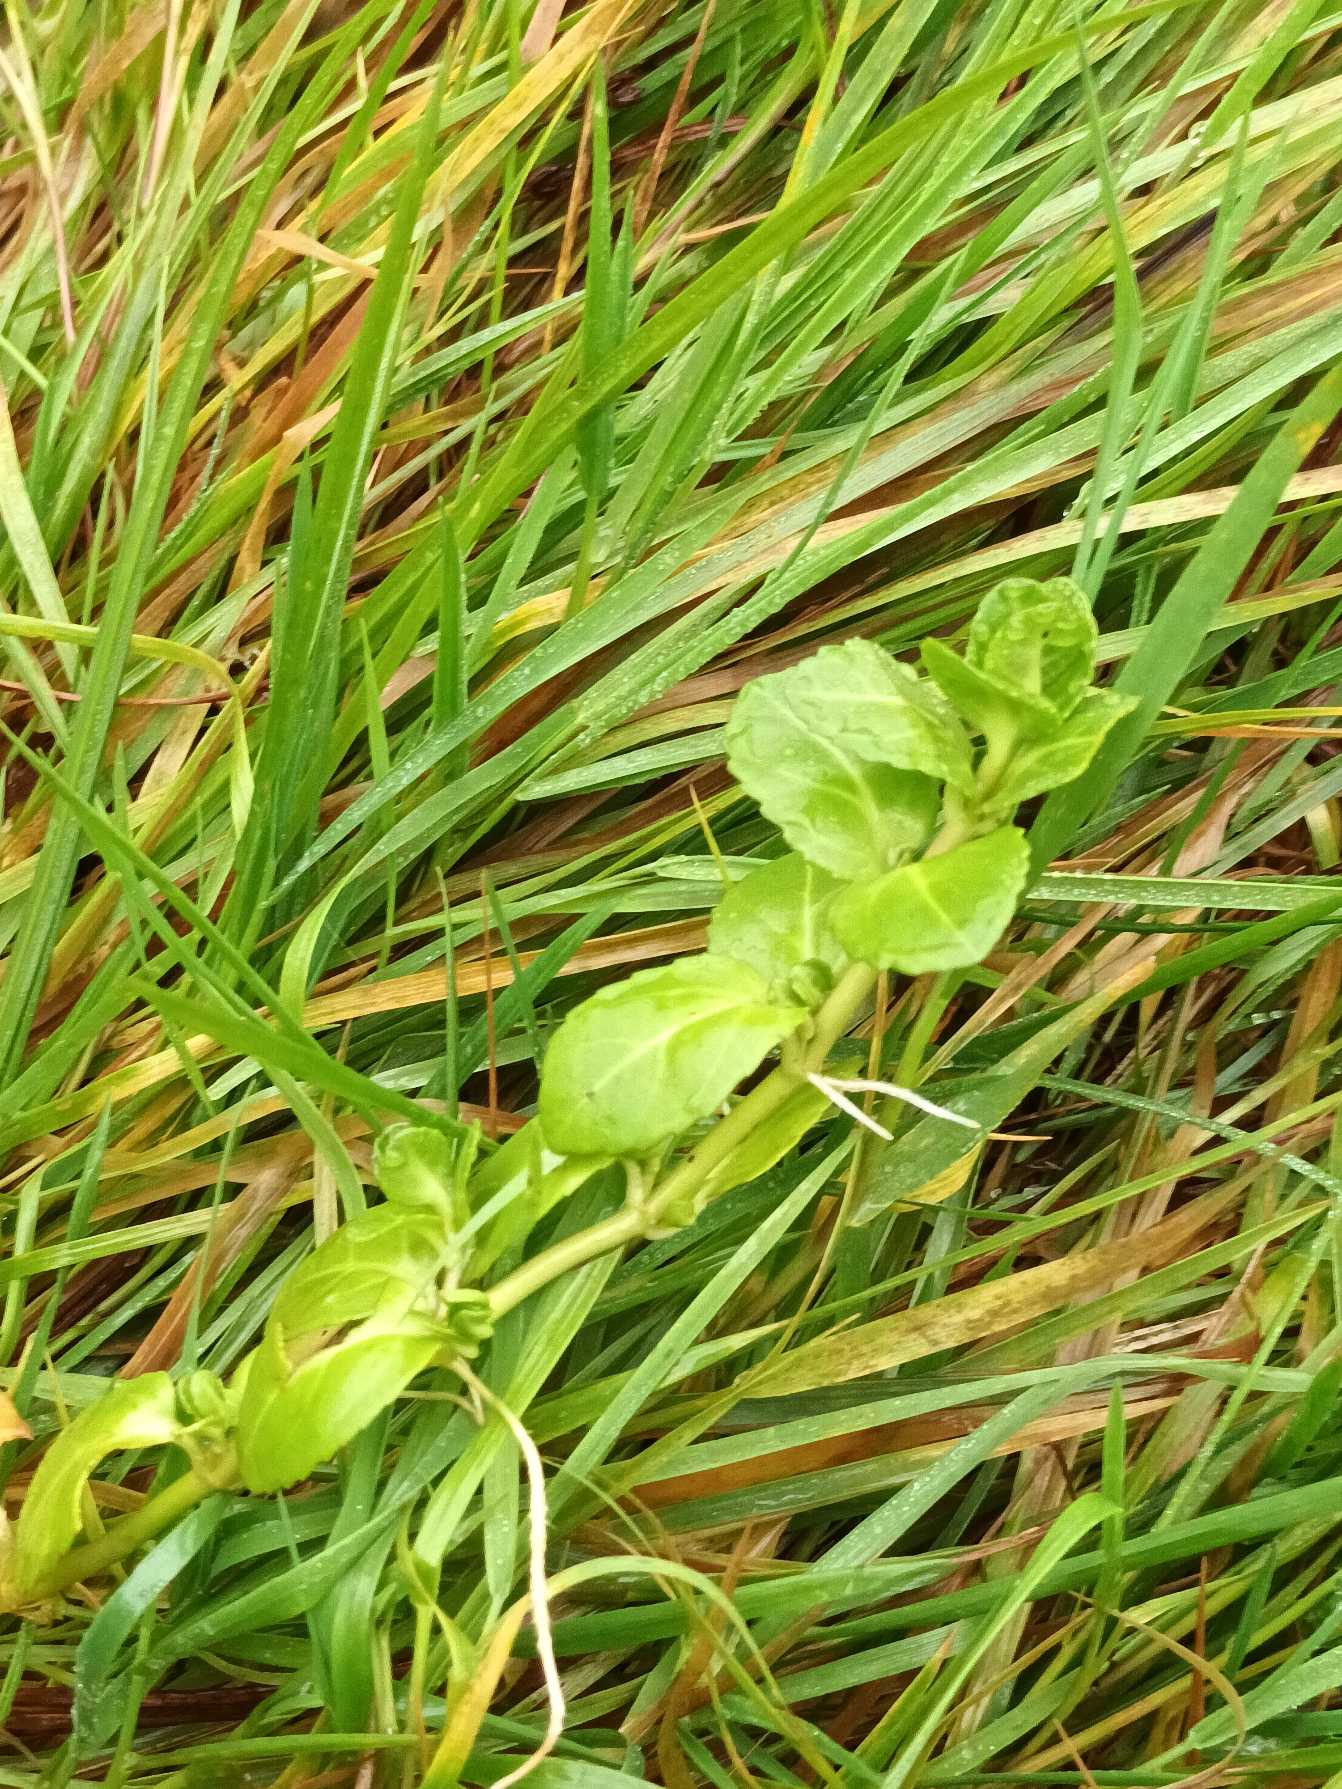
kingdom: Plantae
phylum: Tracheophyta
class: Magnoliopsida
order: Lamiales
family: Plantaginaceae
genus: Veronica
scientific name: Veronica beccabunga
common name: Tykbladet ærenpris
